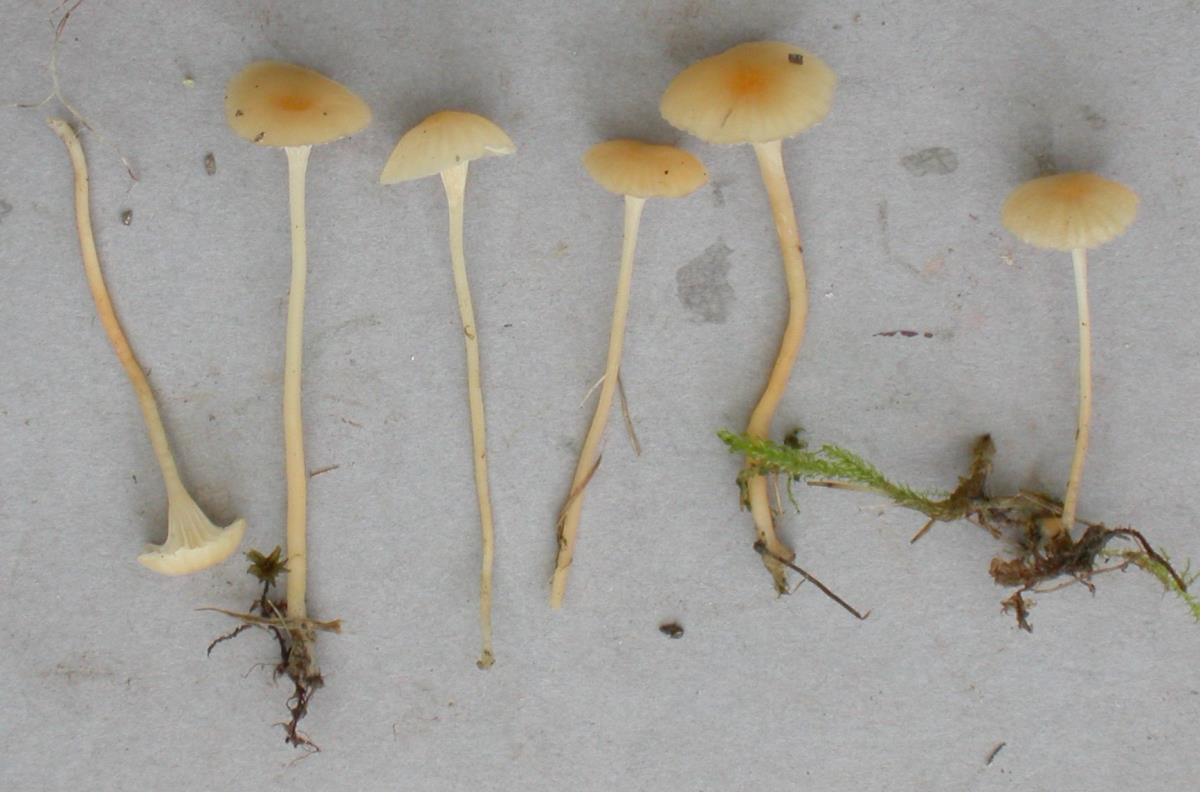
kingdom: Fungi
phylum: Basidiomycota
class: Agaricomycetes
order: Hymenochaetales
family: Rickenellaceae
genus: Rickenella
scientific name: Rickenella
